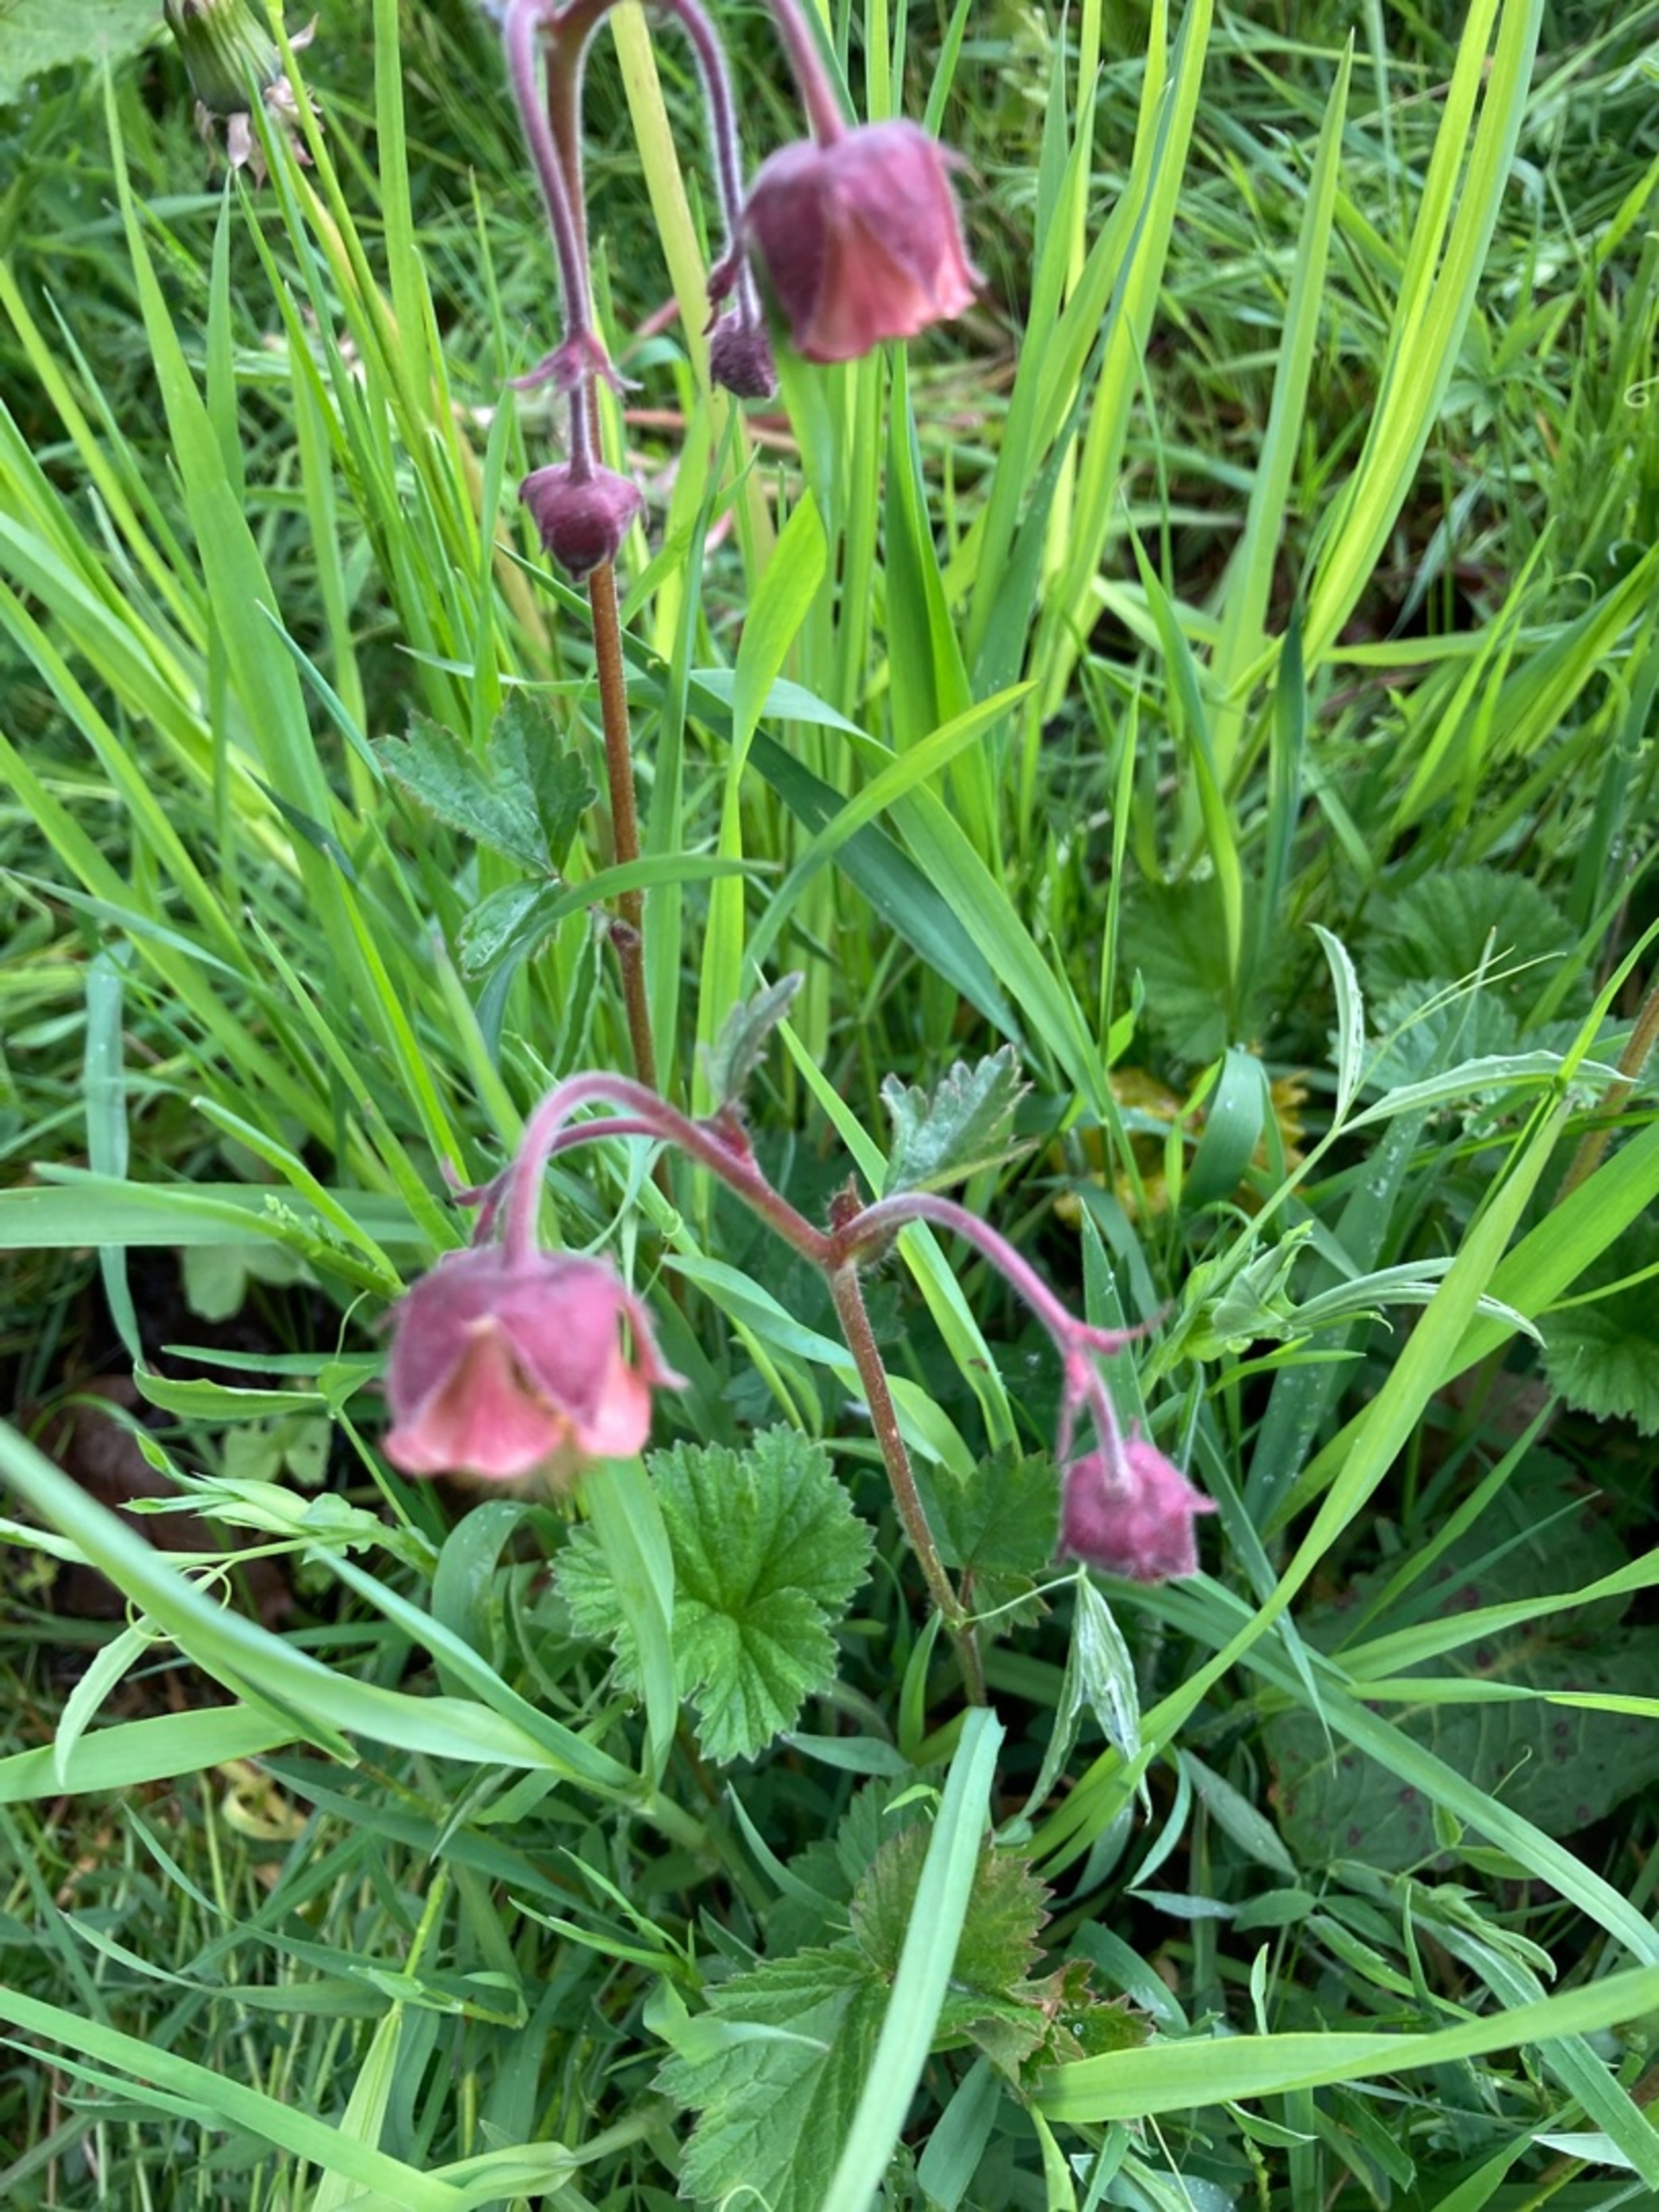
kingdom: Plantae
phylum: Tracheophyta
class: Magnoliopsida
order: Rosales
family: Rosaceae
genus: Geum
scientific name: Geum rivale
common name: Eng-nellikerod
